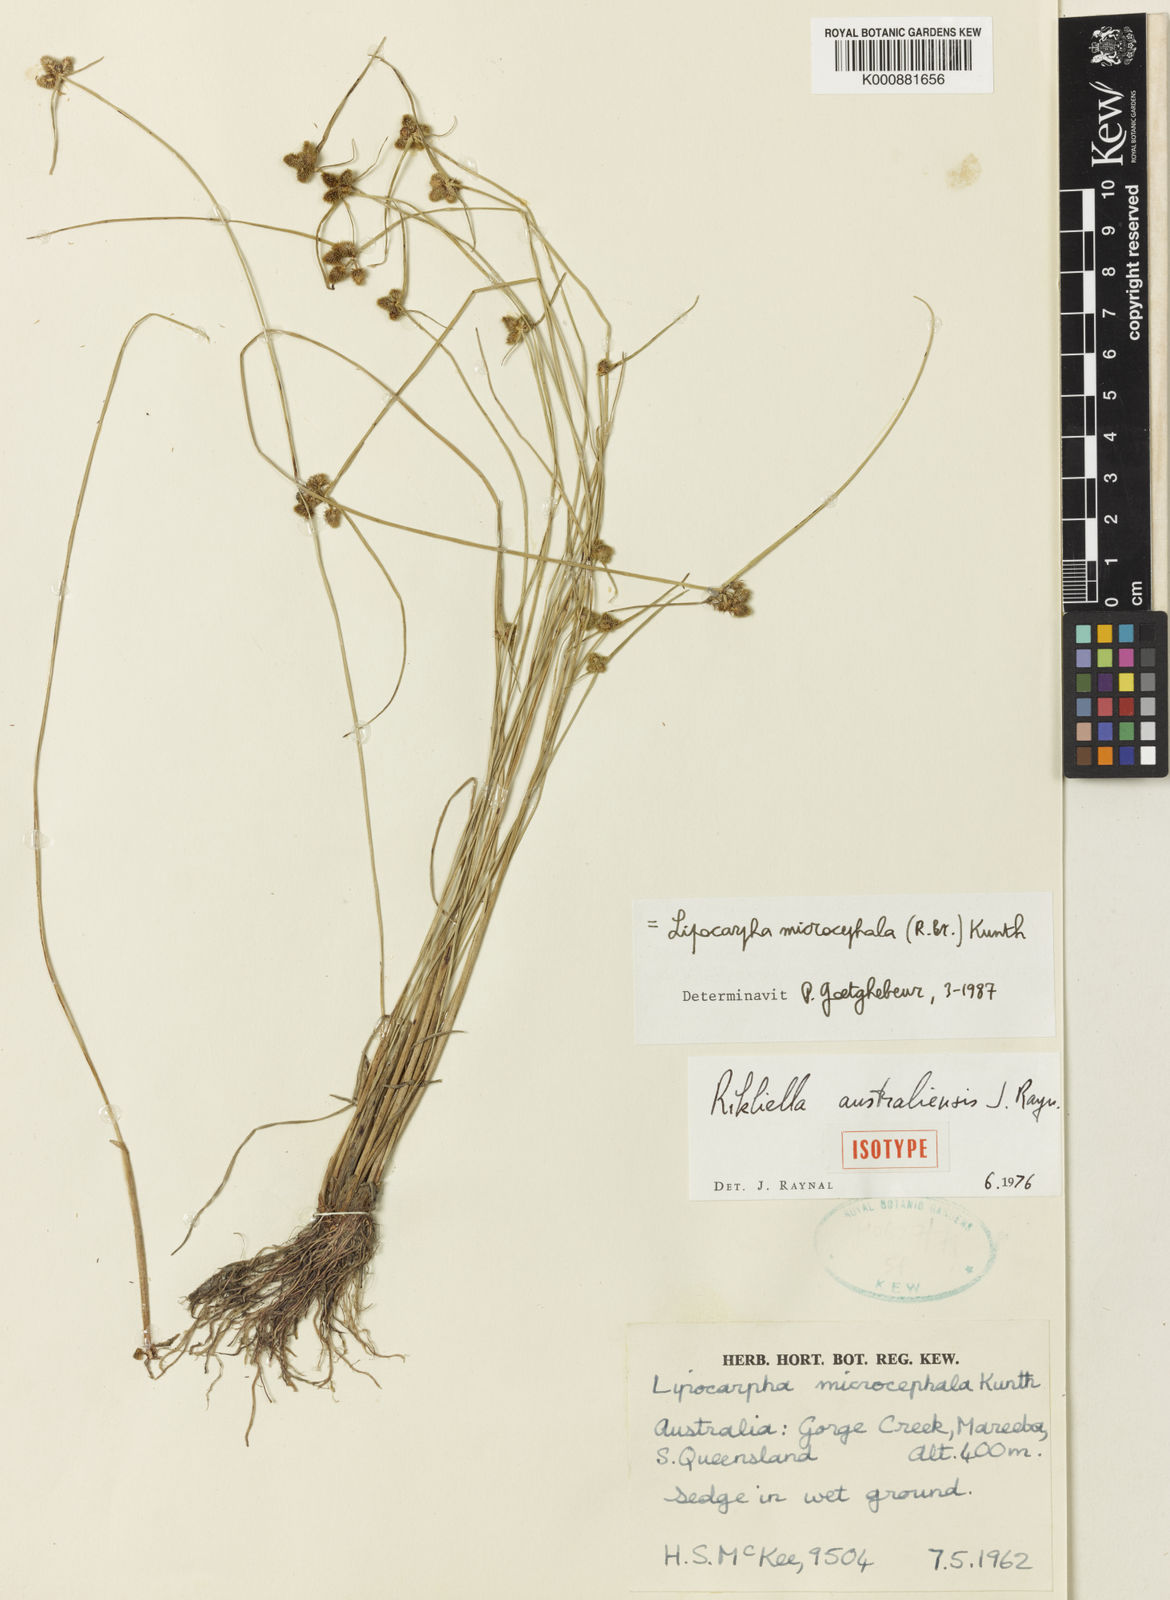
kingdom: Plantae
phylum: Tracheophyta
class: Liliopsida
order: Poales
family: Cyperaceae
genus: Cyperus
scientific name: Cyperus leptocarpus
